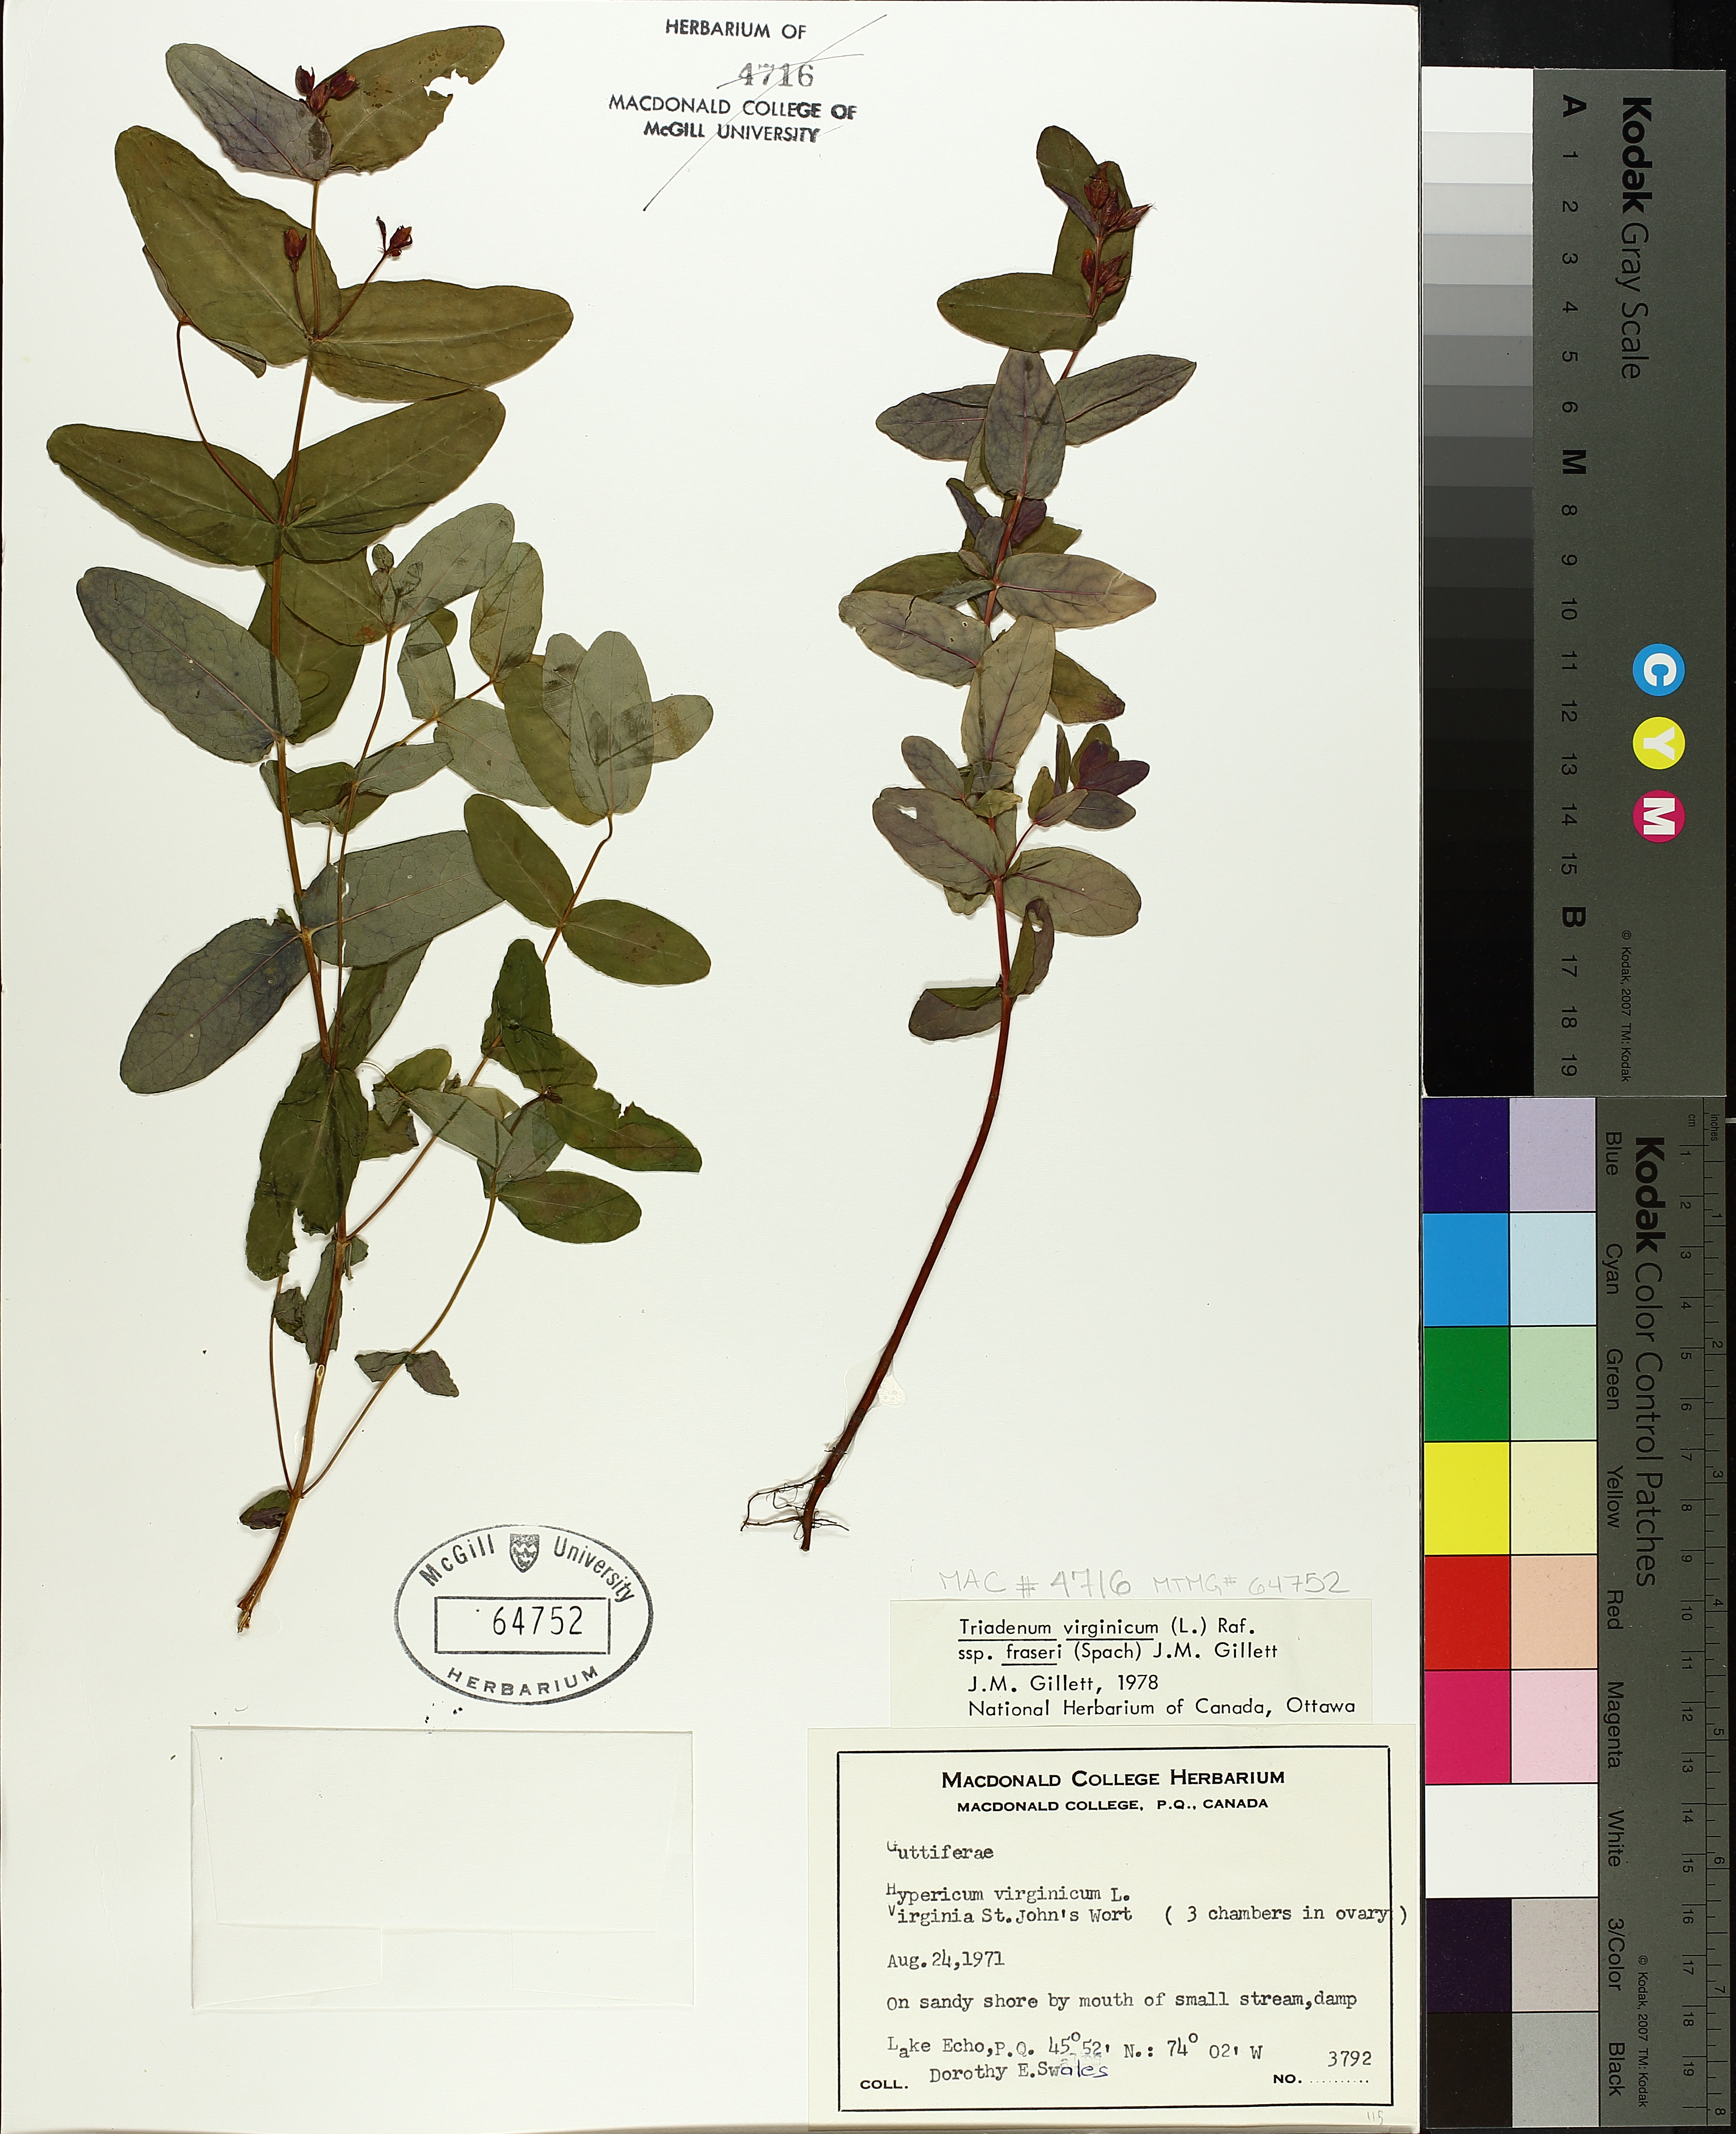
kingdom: Plantae
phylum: Tracheophyta
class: Magnoliopsida
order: Malpighiales
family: Hypericaceae
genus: Triadenum
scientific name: Triadenum fraseri
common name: Fraser's marsh st. johnswort
